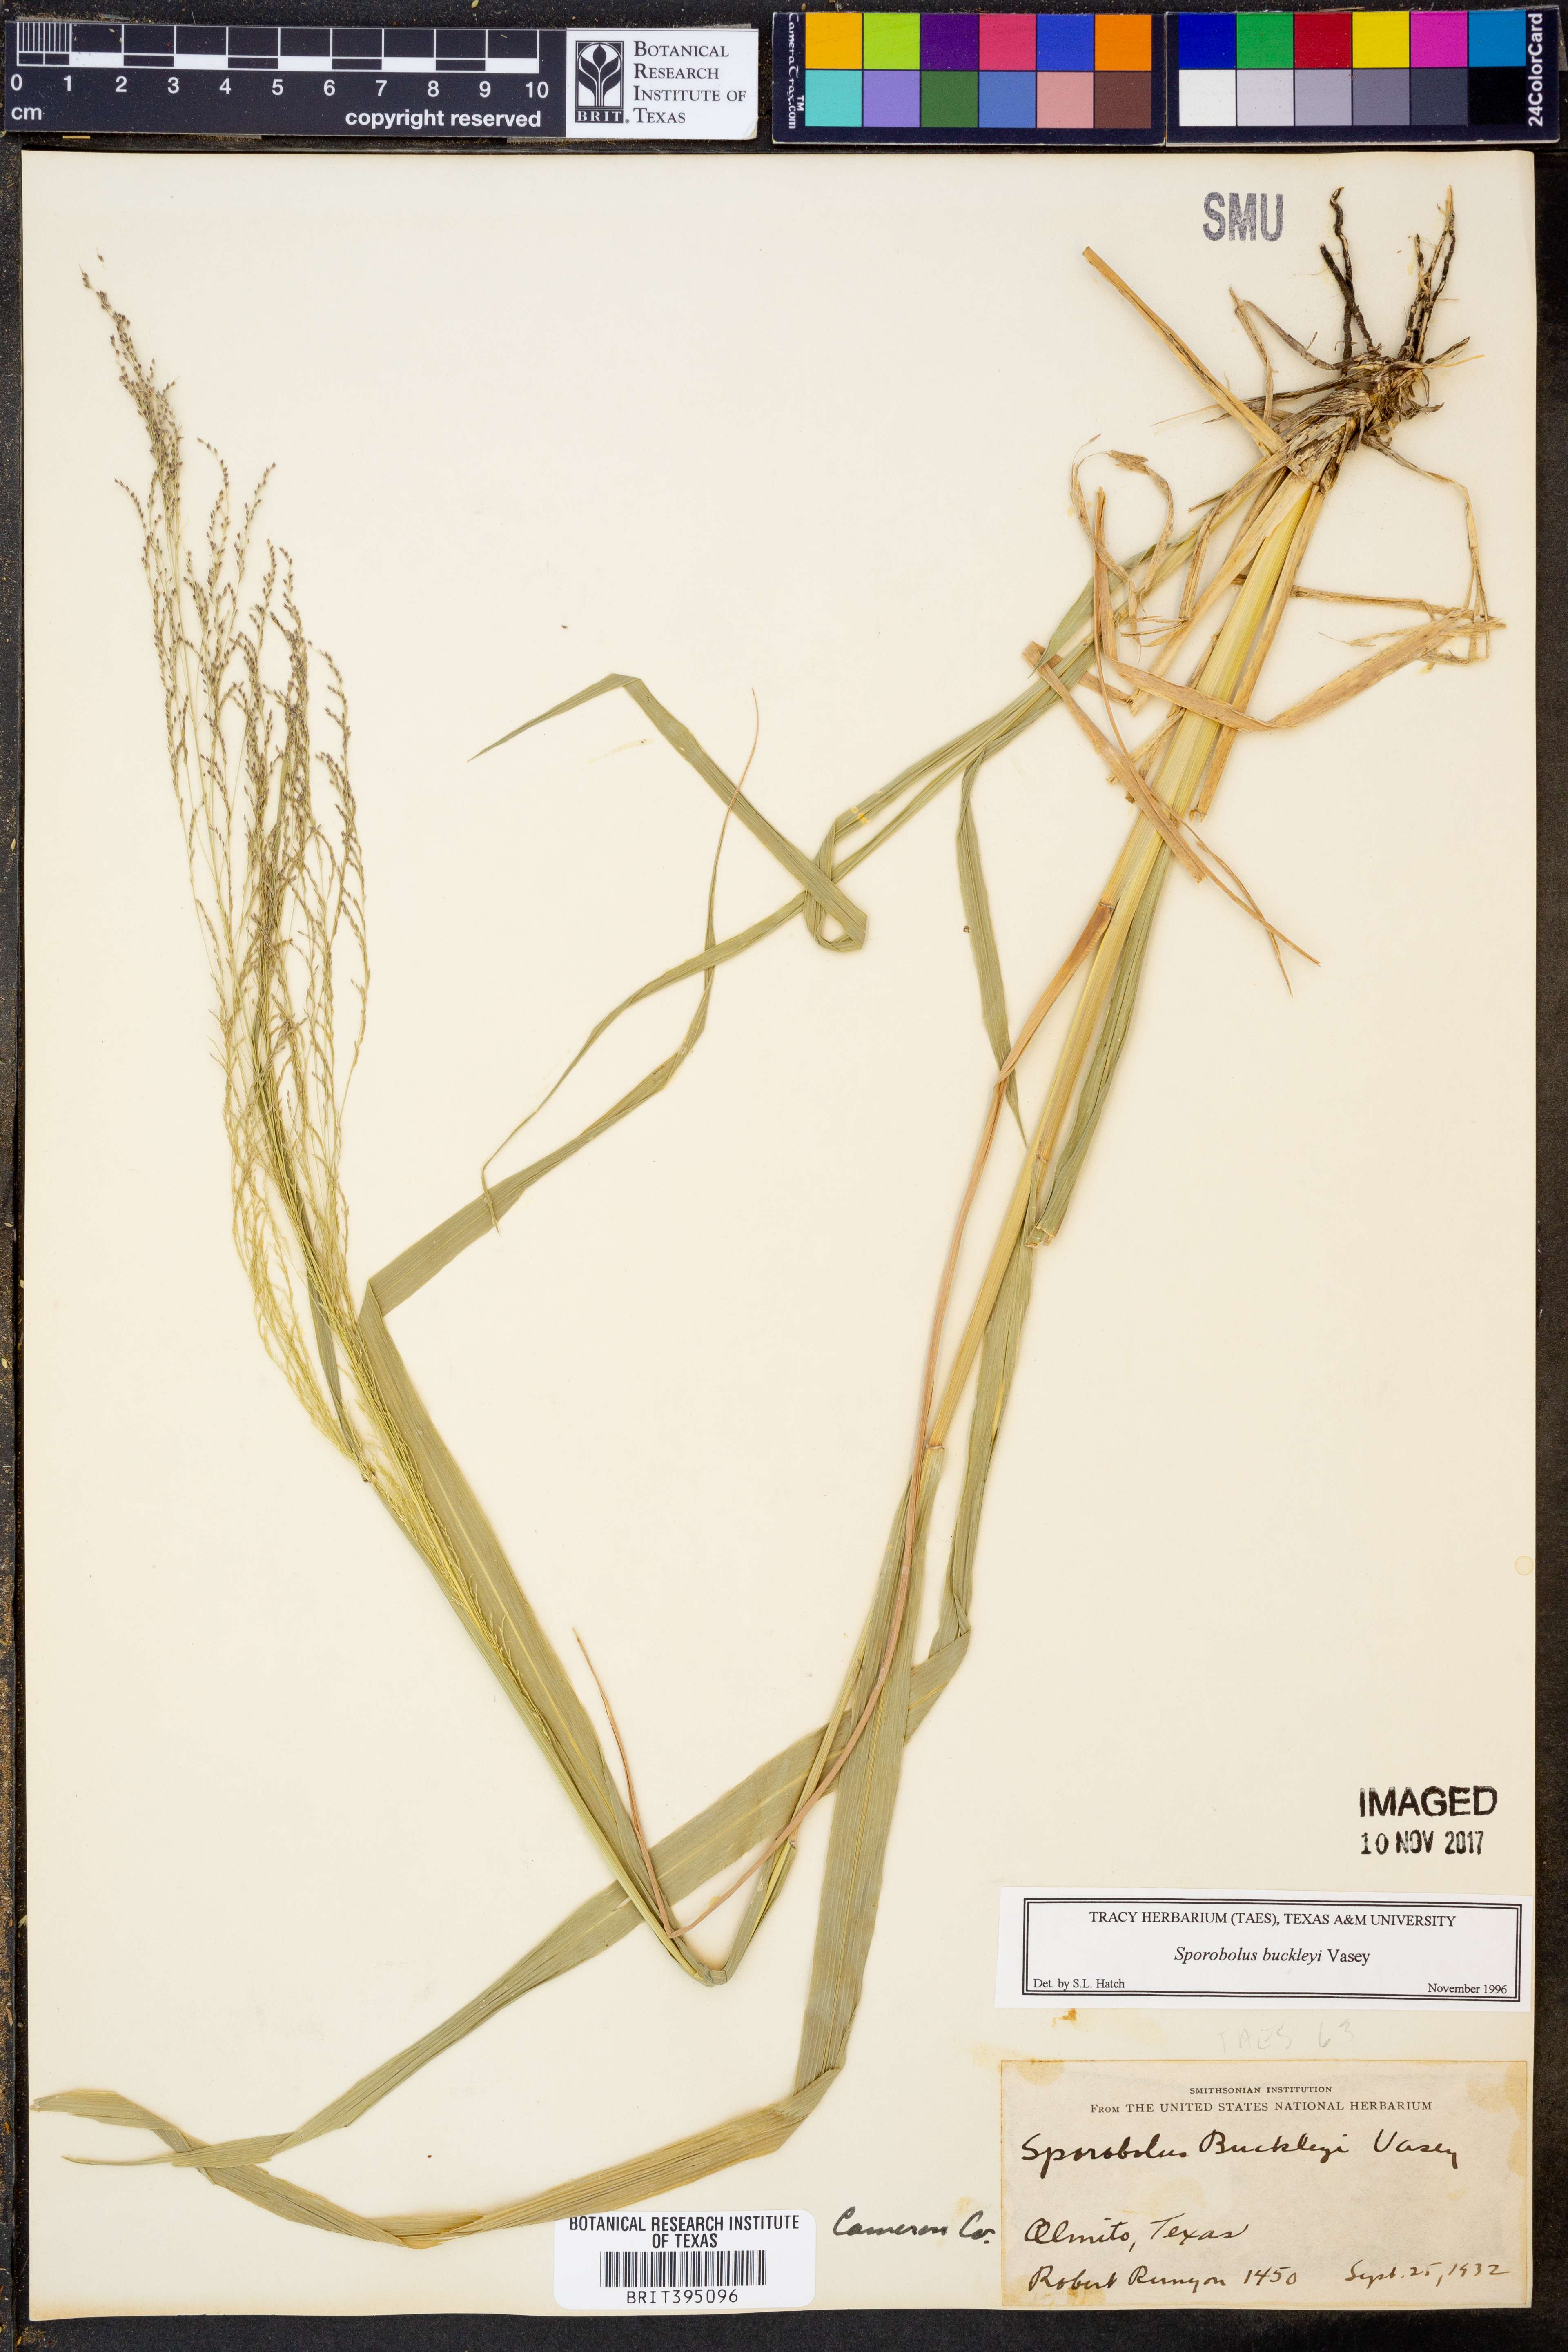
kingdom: Plantae
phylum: Tracheophyta
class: Liliopsida
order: Poales
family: Poaceae
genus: Sporobolus
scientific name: Sporobolus buckleyi
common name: Buckley's dropseed
